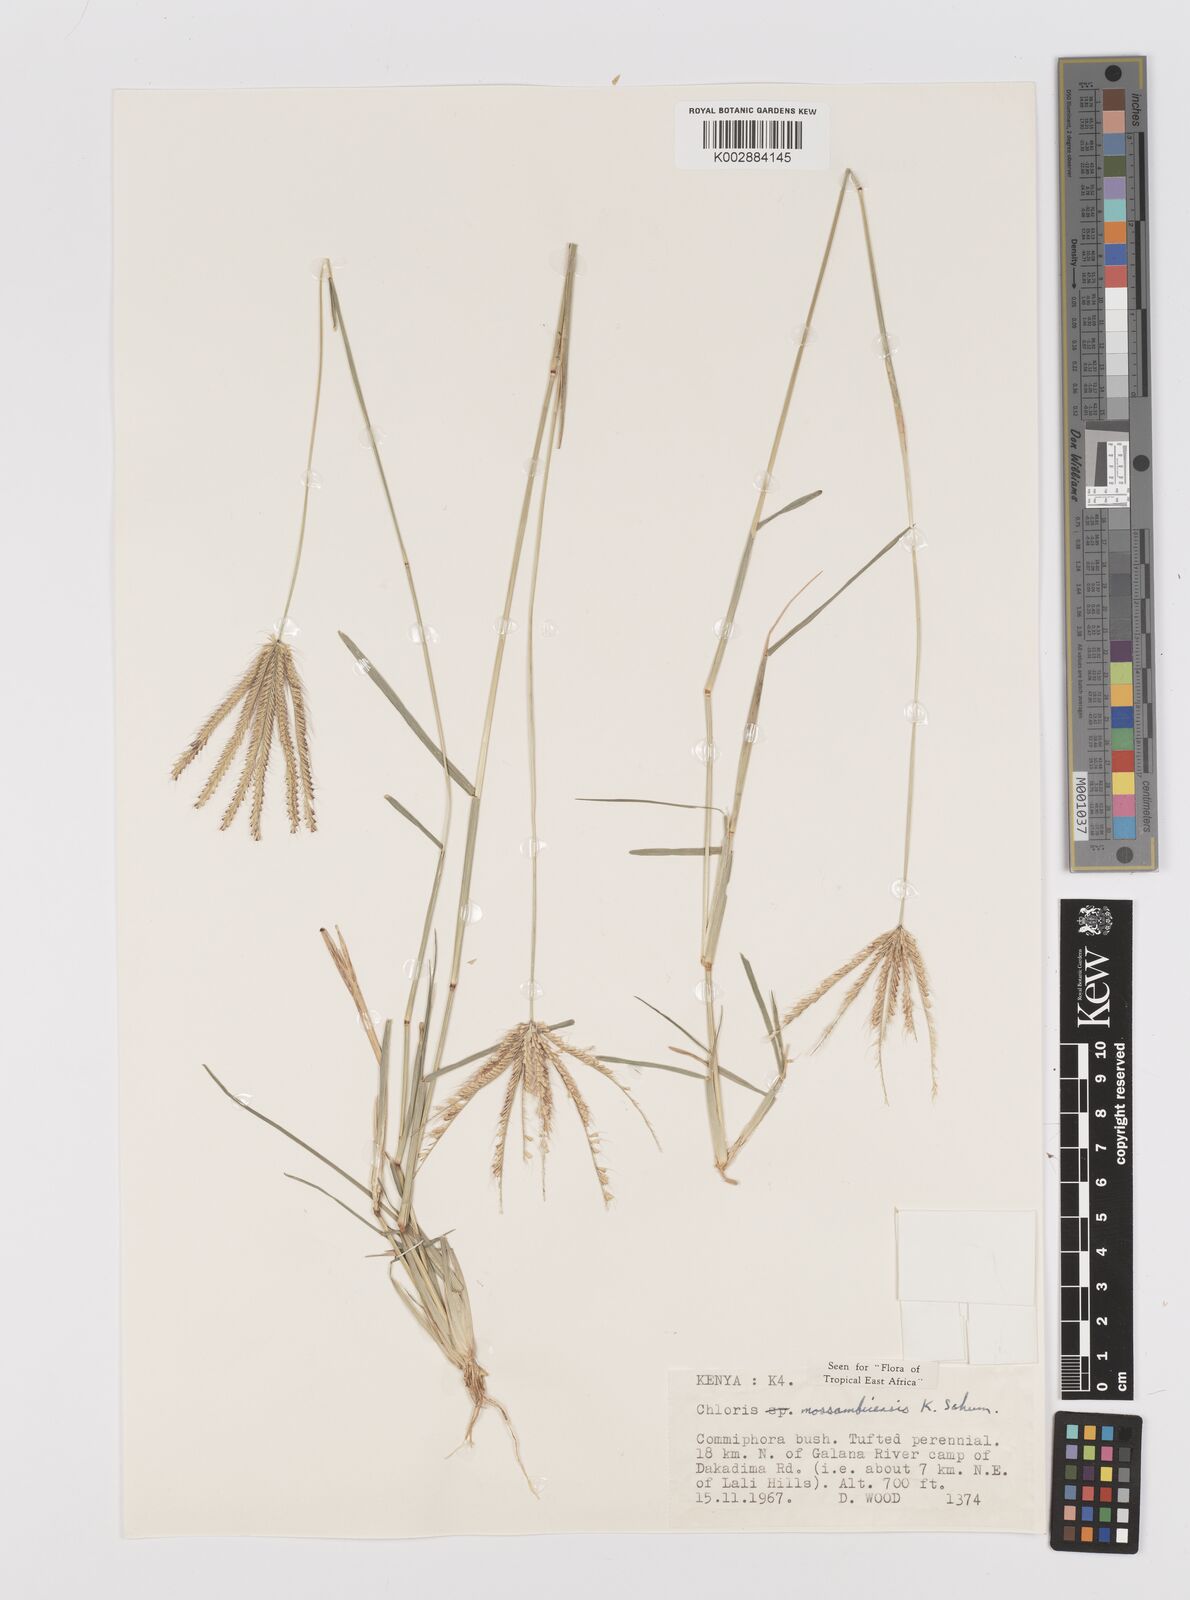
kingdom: Plantae
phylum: Tracheophyta
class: Liliopsida
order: Poales
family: Poaceae
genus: Chloris
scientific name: Chloris mossambicensis
